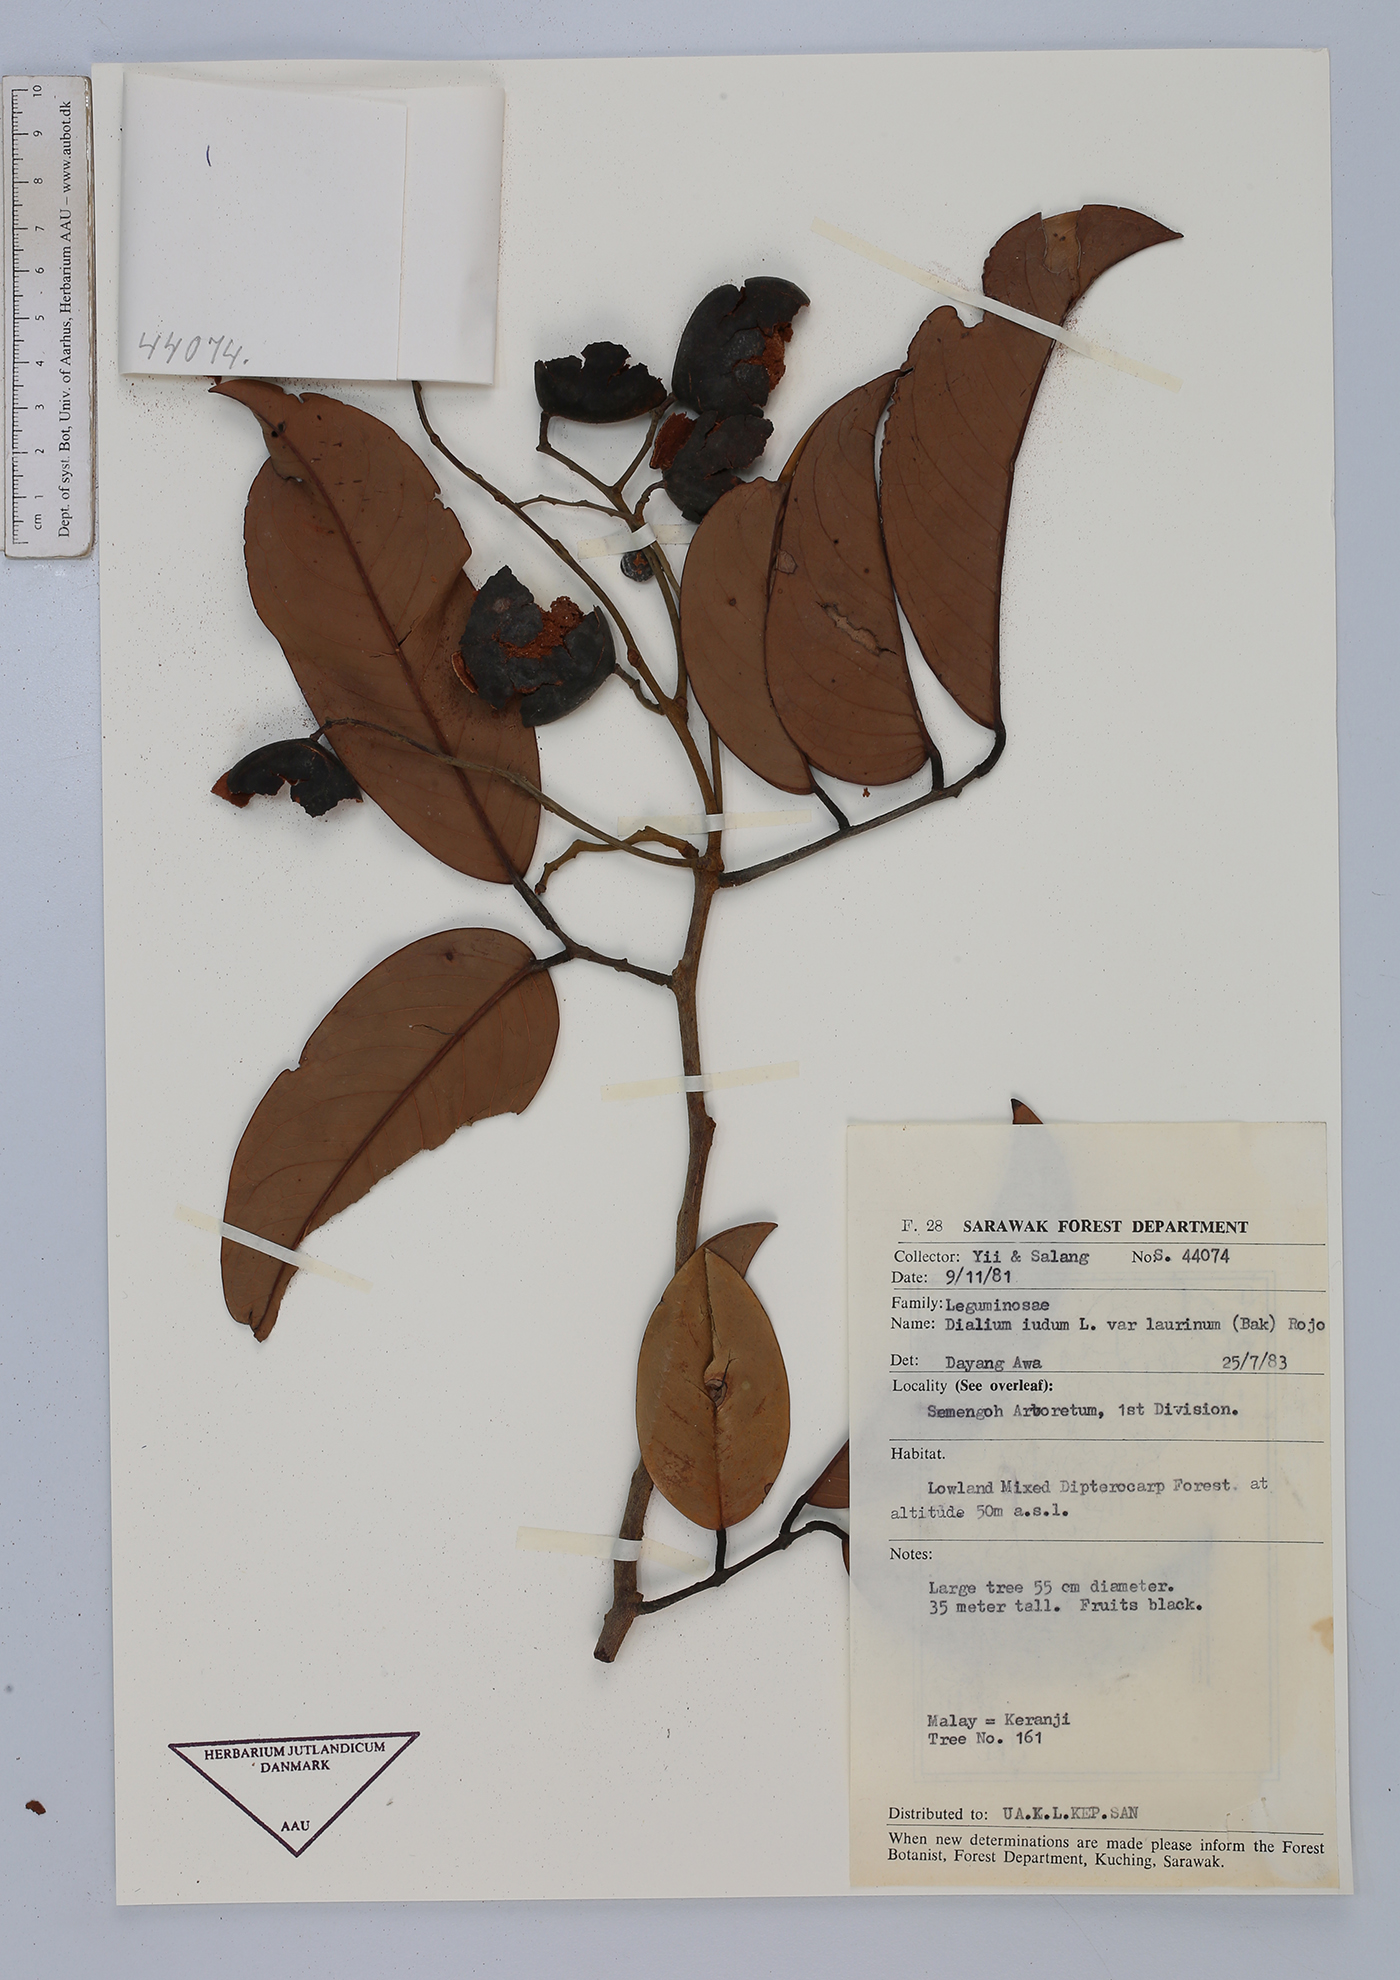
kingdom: Plantae
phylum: Tracheophyta
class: Magnoliopsida
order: Fabales
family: Fabaceae
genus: Dialium
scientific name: Dialium indum
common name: Tamarind-plum
